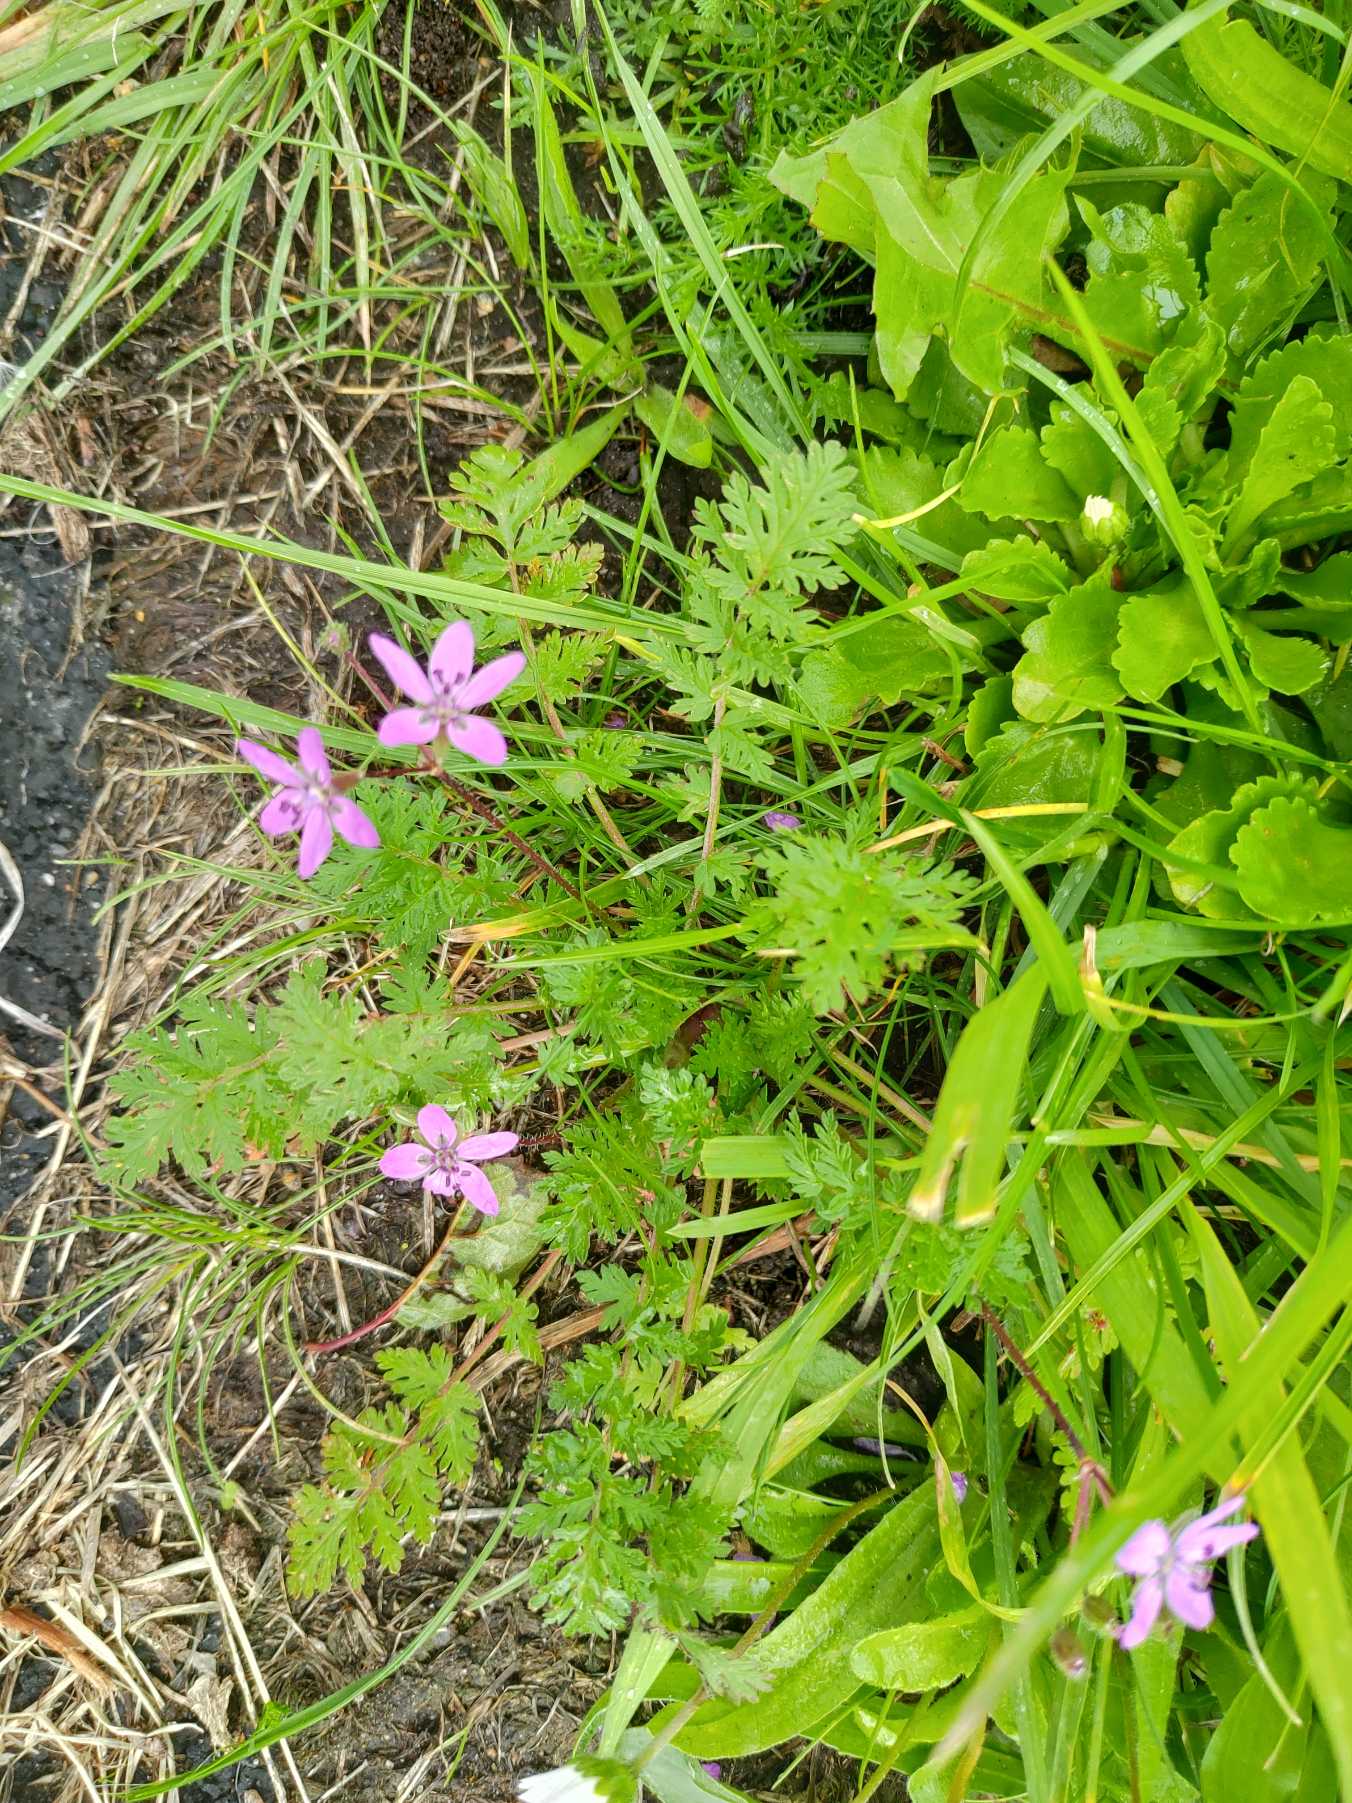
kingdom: Plantae
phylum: Tracheophyta
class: Magnoliopsida
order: Geraniales
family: Geraniaceae
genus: Erodium
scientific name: Erodium cicutarium
